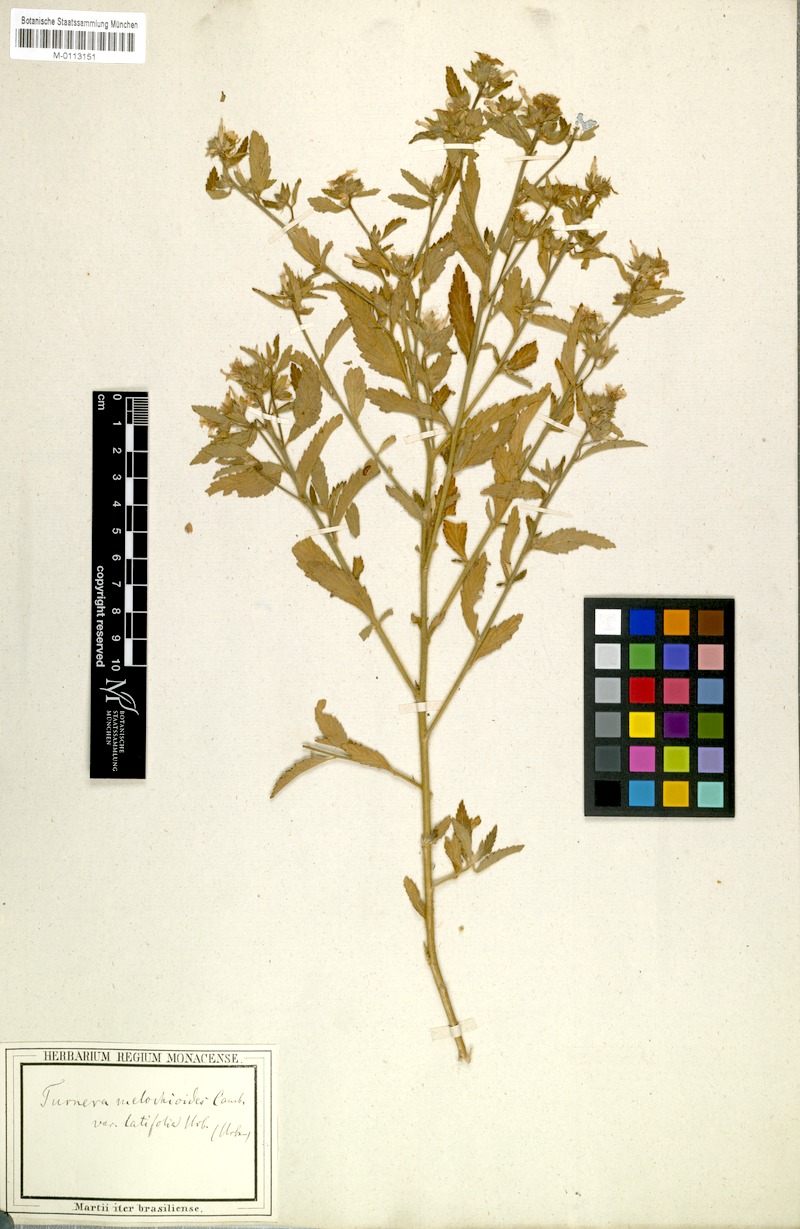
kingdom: Plantae
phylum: Tracheophyta
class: Magnoliopsida
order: Malpighiales
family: Turneraceae
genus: Turnera
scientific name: Turnera arenaria
